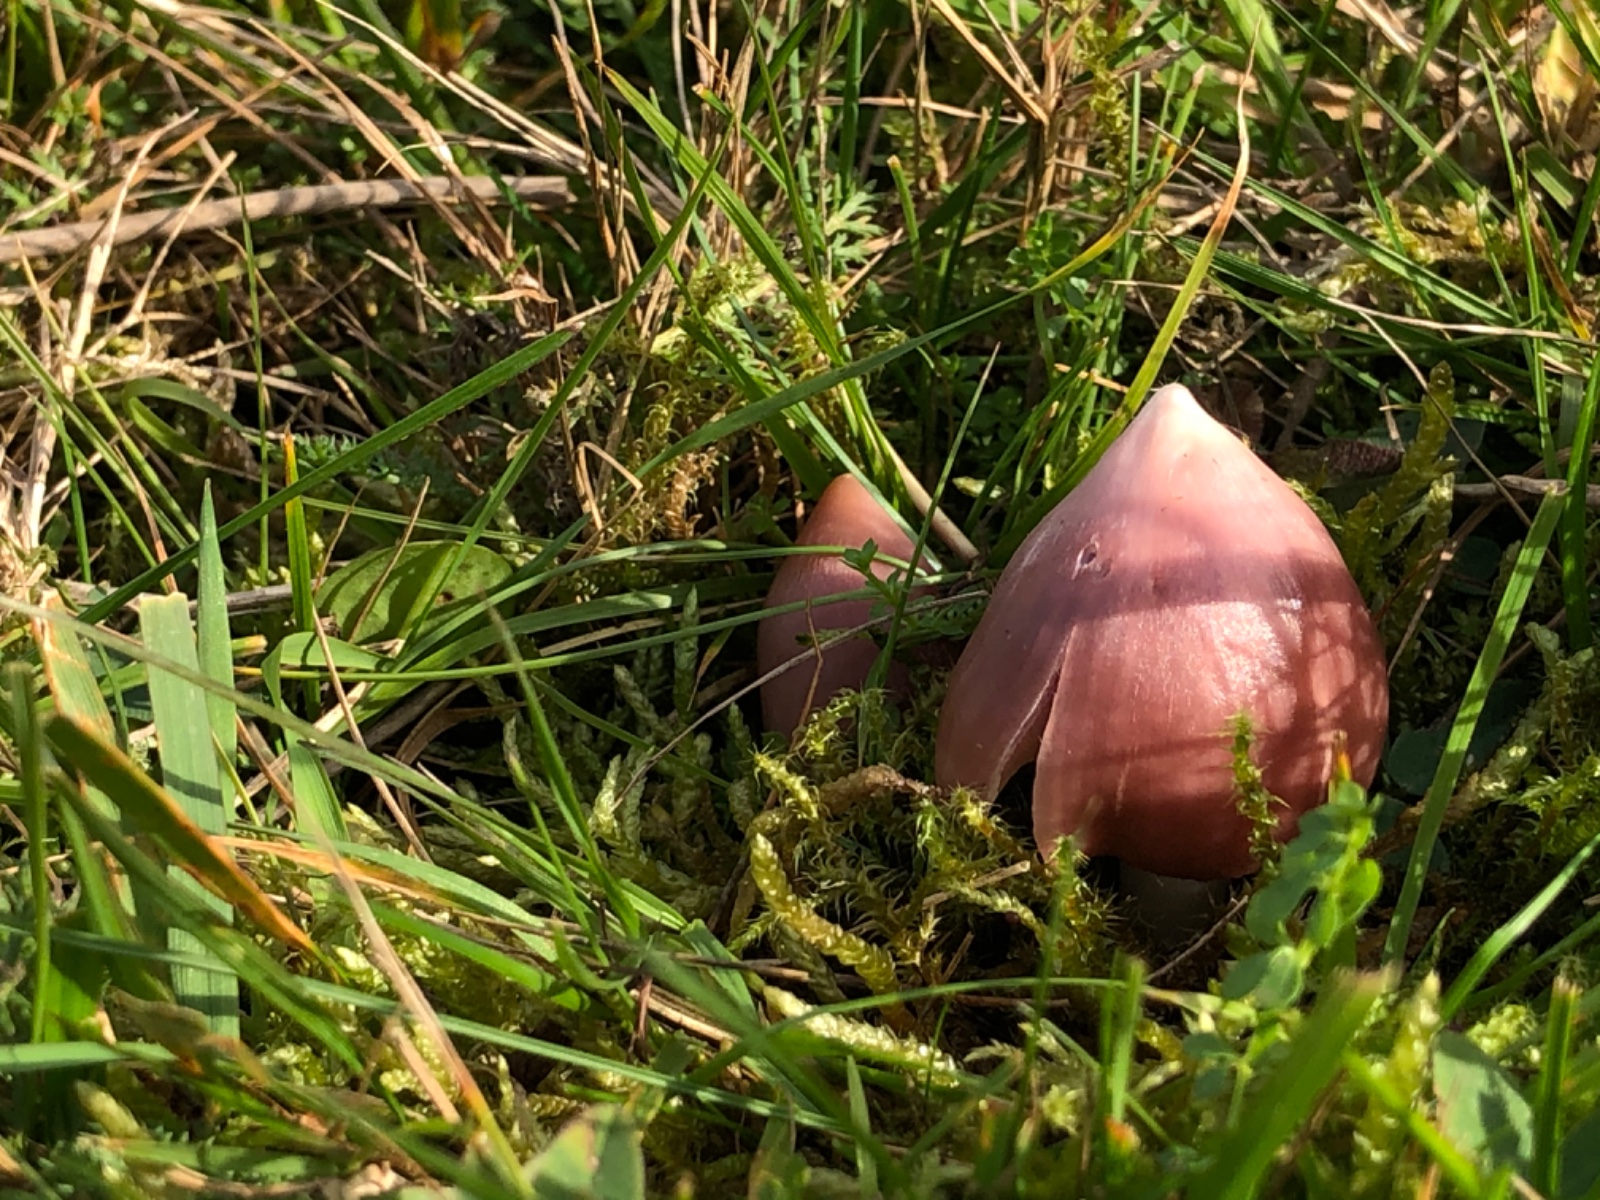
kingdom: Fungi
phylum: Basidiomycota
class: Agaricomycetes
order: Agaricales
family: Hygrophoraceae
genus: Porpolomopsis
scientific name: Porpolomopsis calyptriformis
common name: rosenrød vokshat
